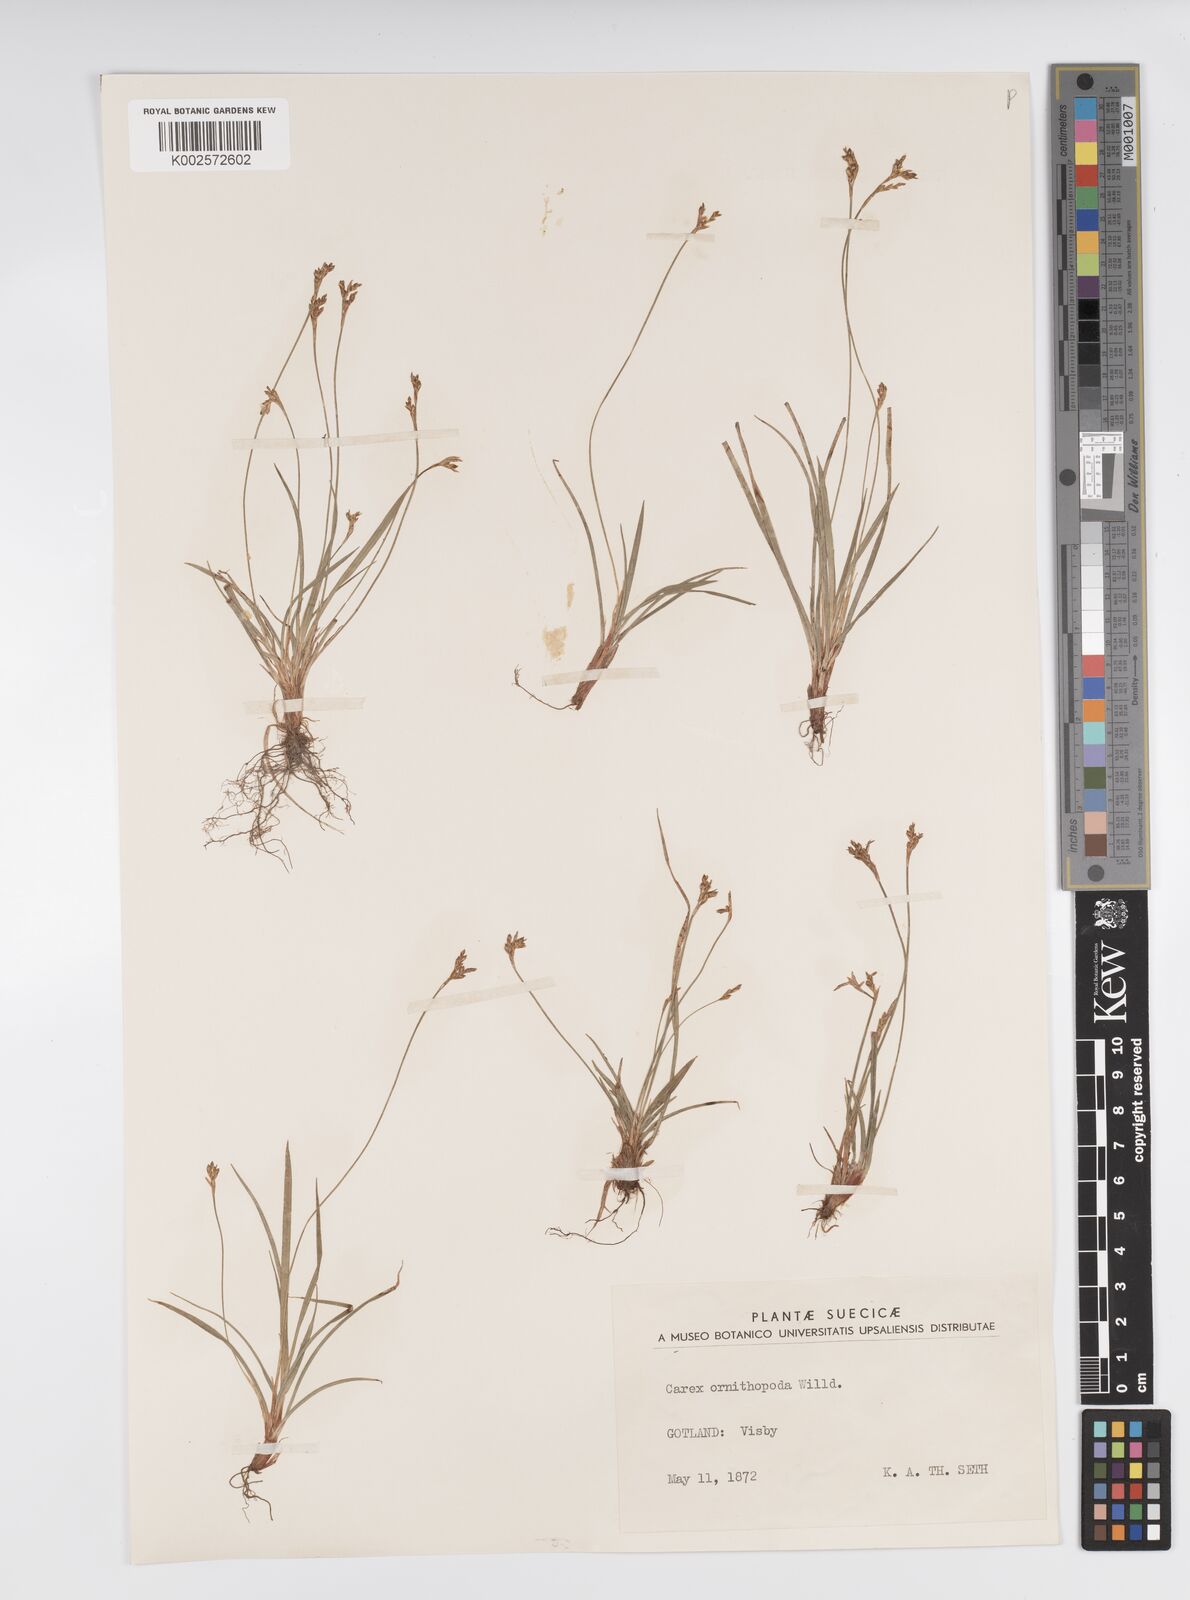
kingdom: Plantae
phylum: Tracheophyta
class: Liliopsida
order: Poales
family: Cyperaceae
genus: Carex
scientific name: Carex ornithopoda
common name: Bird's-foot sedge
